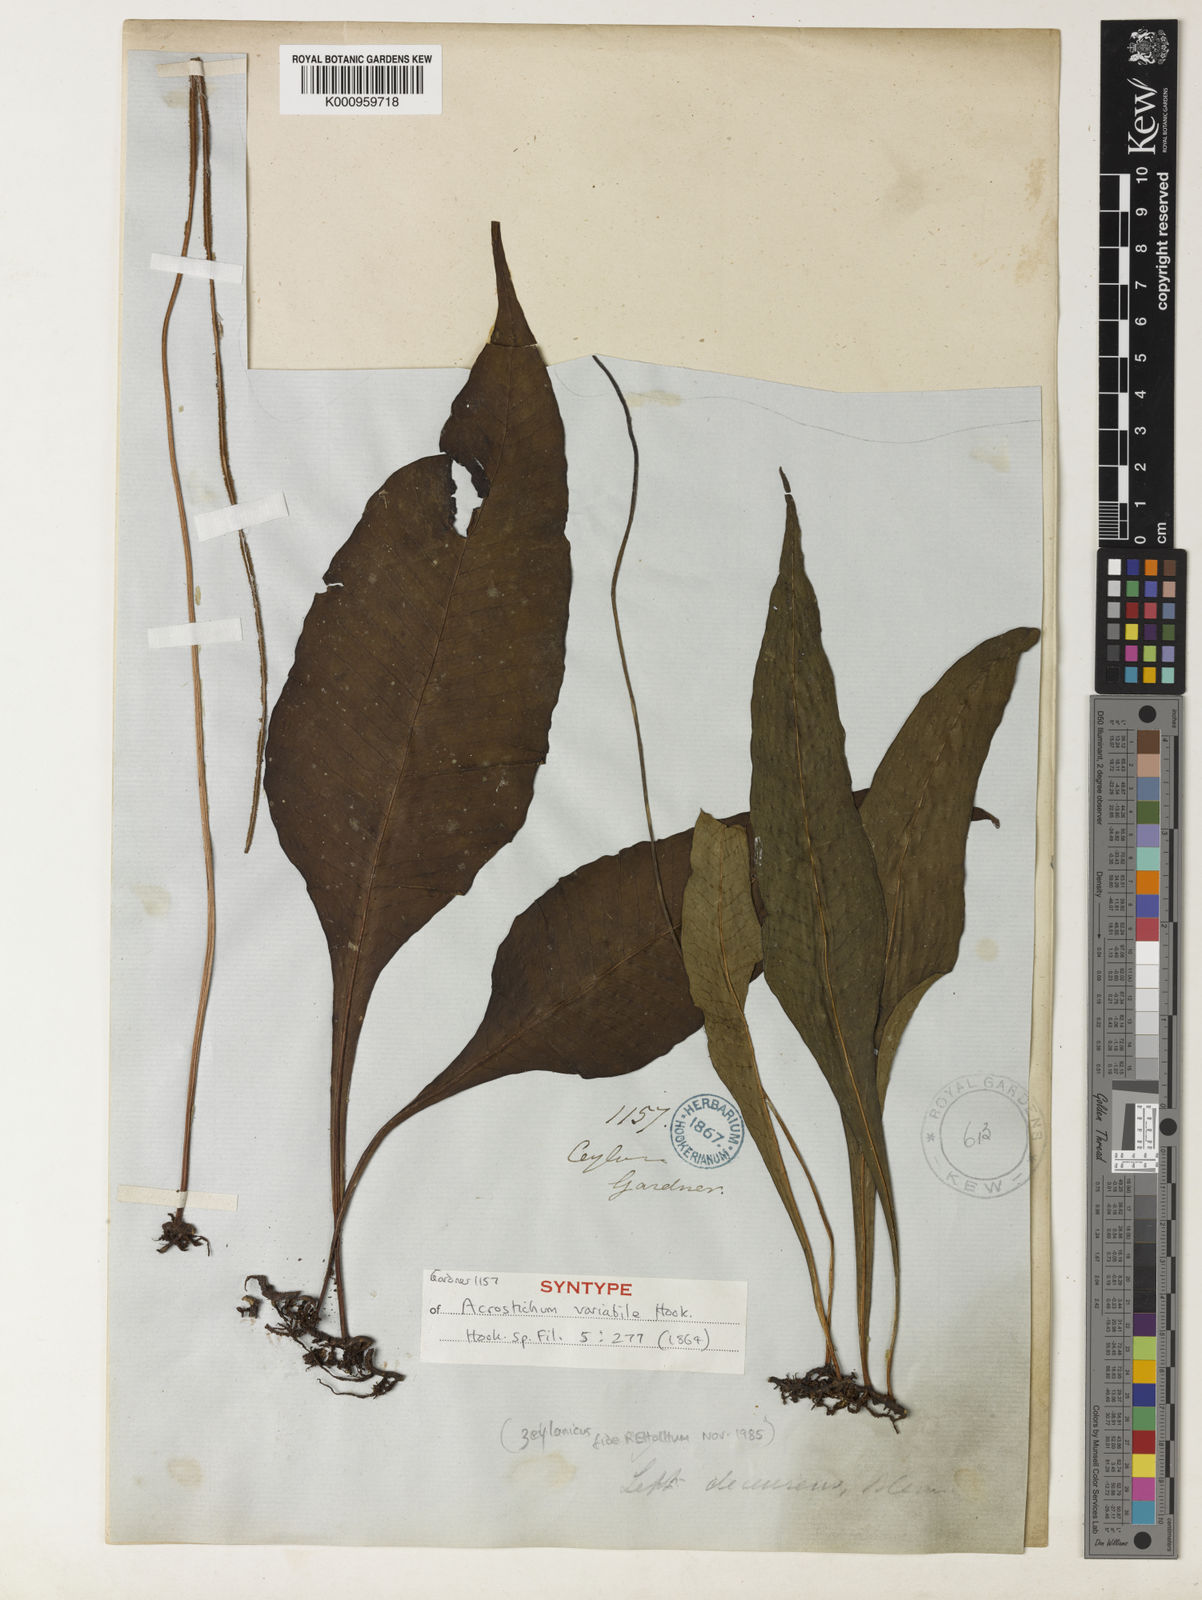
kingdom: Plantae
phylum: Tracheophyta
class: Polypodiopsida
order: Polypodiales
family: Polypodiaceae
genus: Leptochilus
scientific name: Leptochilus decurrens
